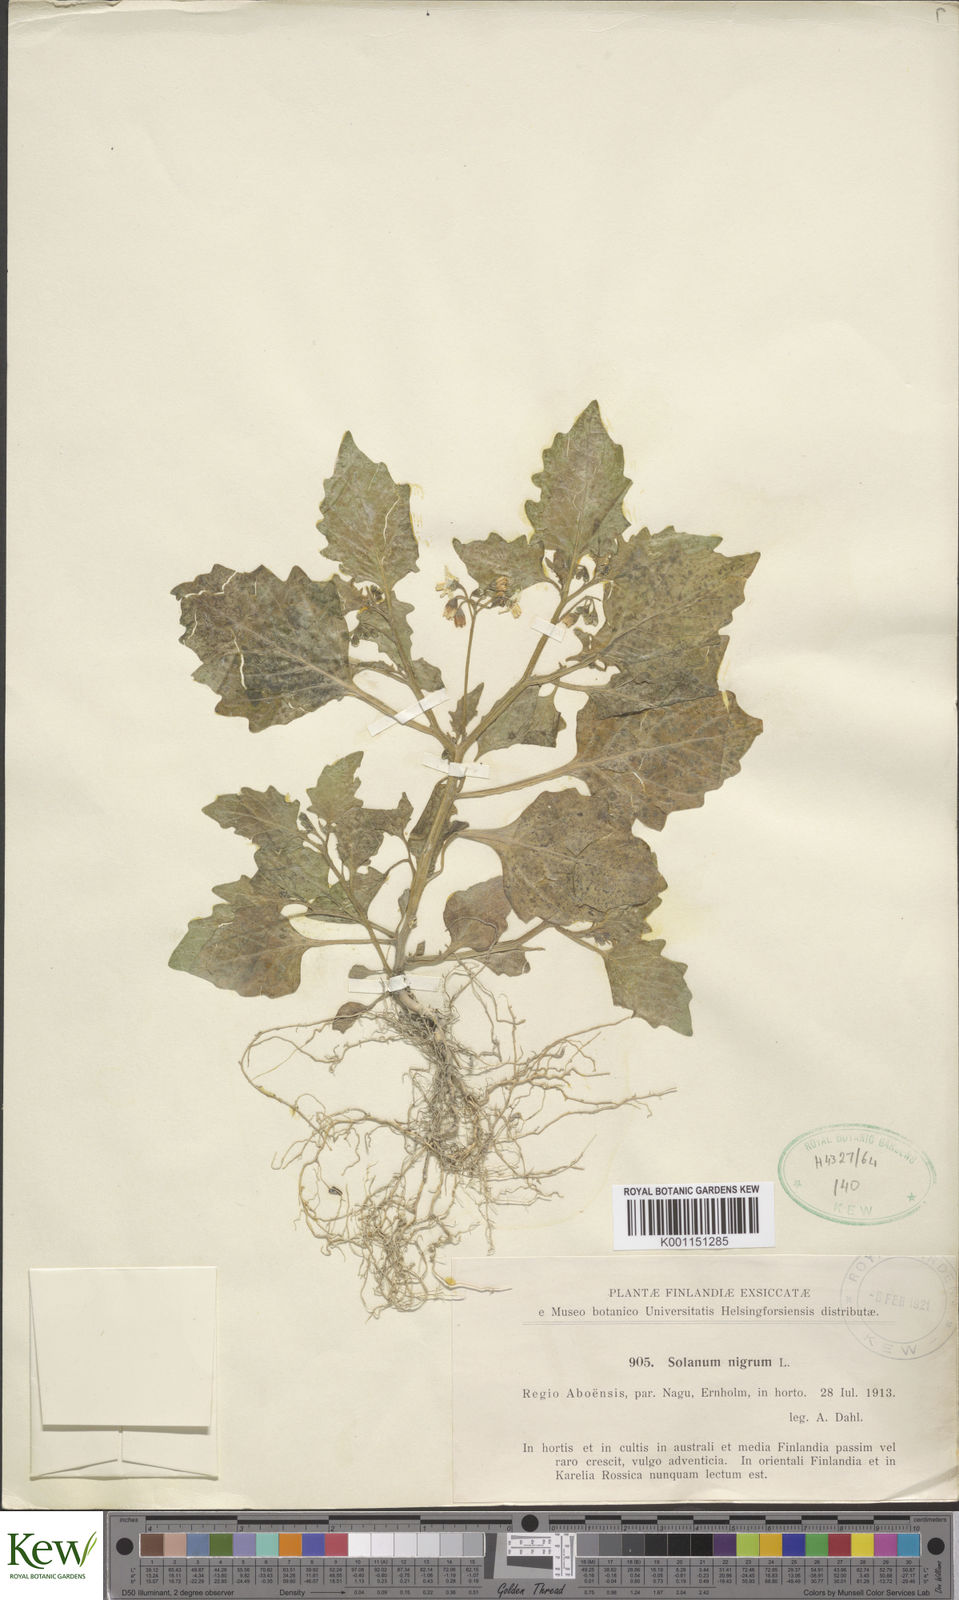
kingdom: Plantae
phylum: Tracheophyta
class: Magnoliopsida
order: Solanales
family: Solanaceae
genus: Solanum
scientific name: Solanum nigrum
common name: Black nightshade
